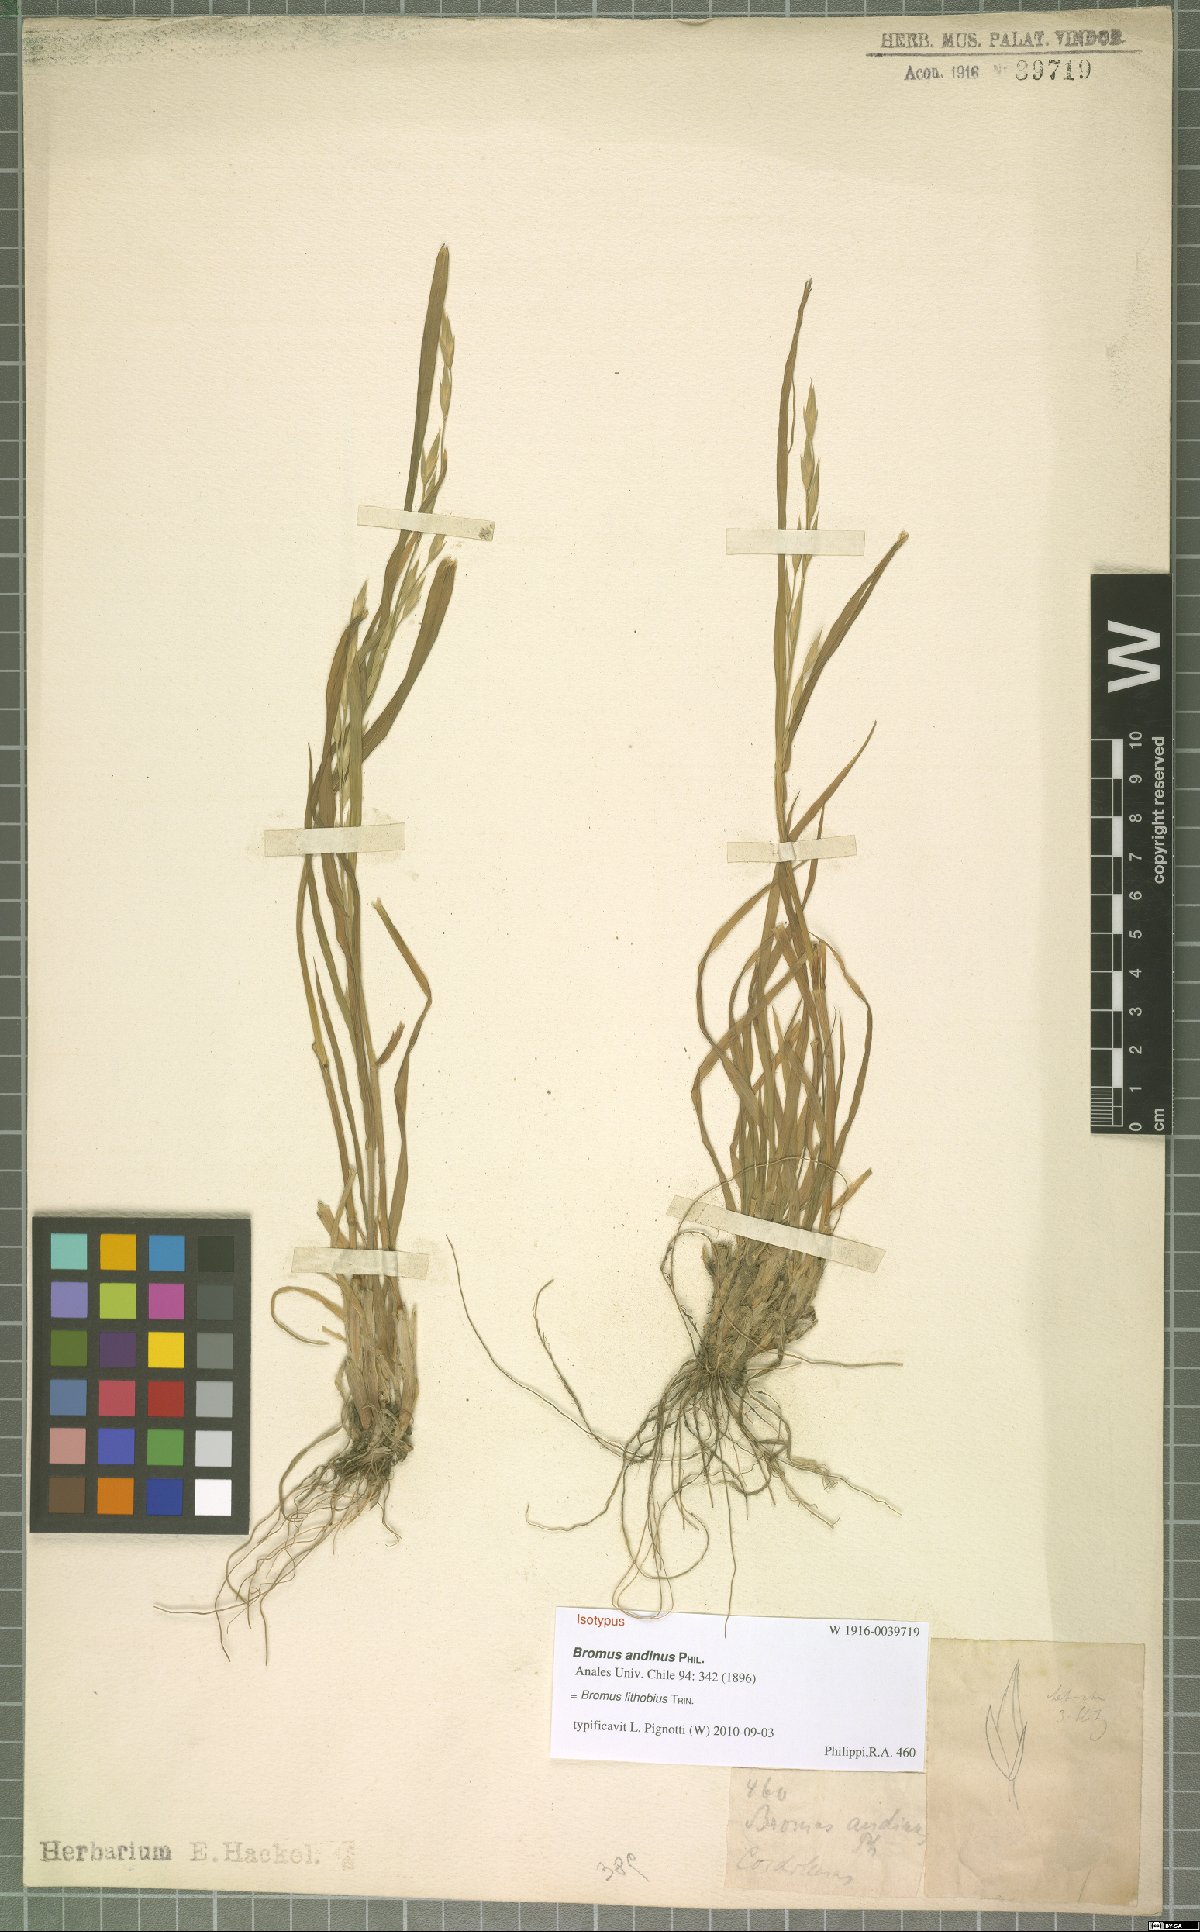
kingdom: Plantae
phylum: Tracheophyta
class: Liliopsida
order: Poales
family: Poaceae
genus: Bromus
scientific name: Bromus lithobius
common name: Chilean brome
